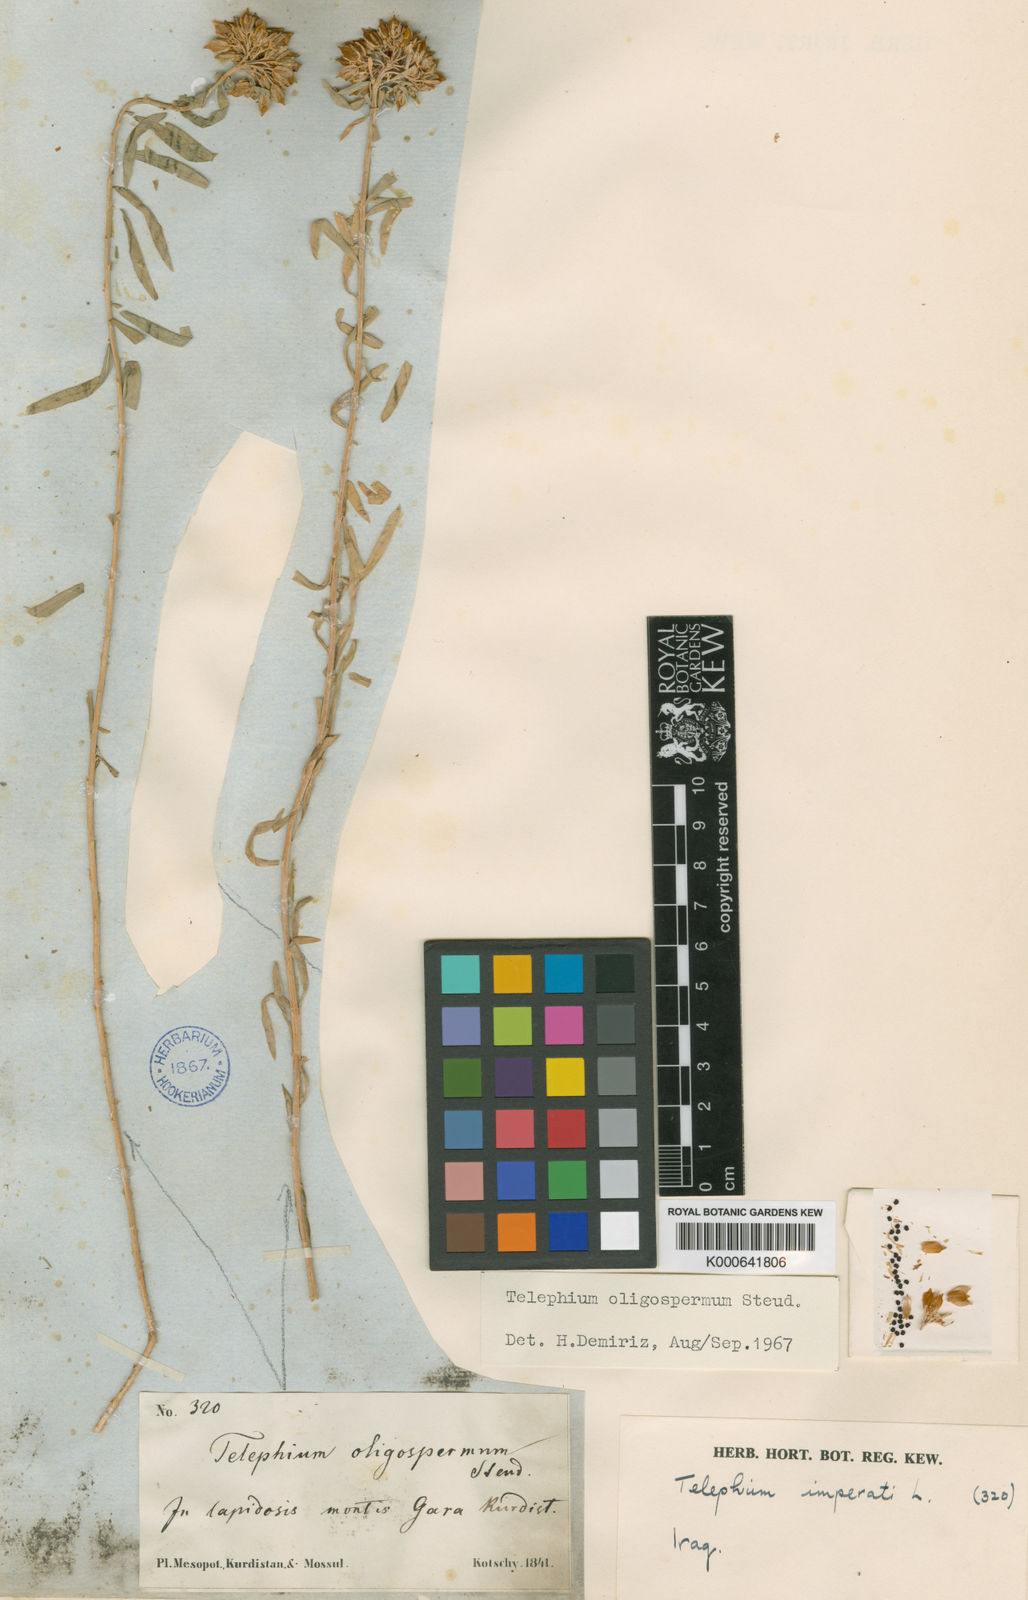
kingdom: Plantae
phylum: Tracheophyta
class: Magnoliopsida
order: Caryophyllales
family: Caryophyllaceae
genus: Telephium
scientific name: Telephium oligospermum
